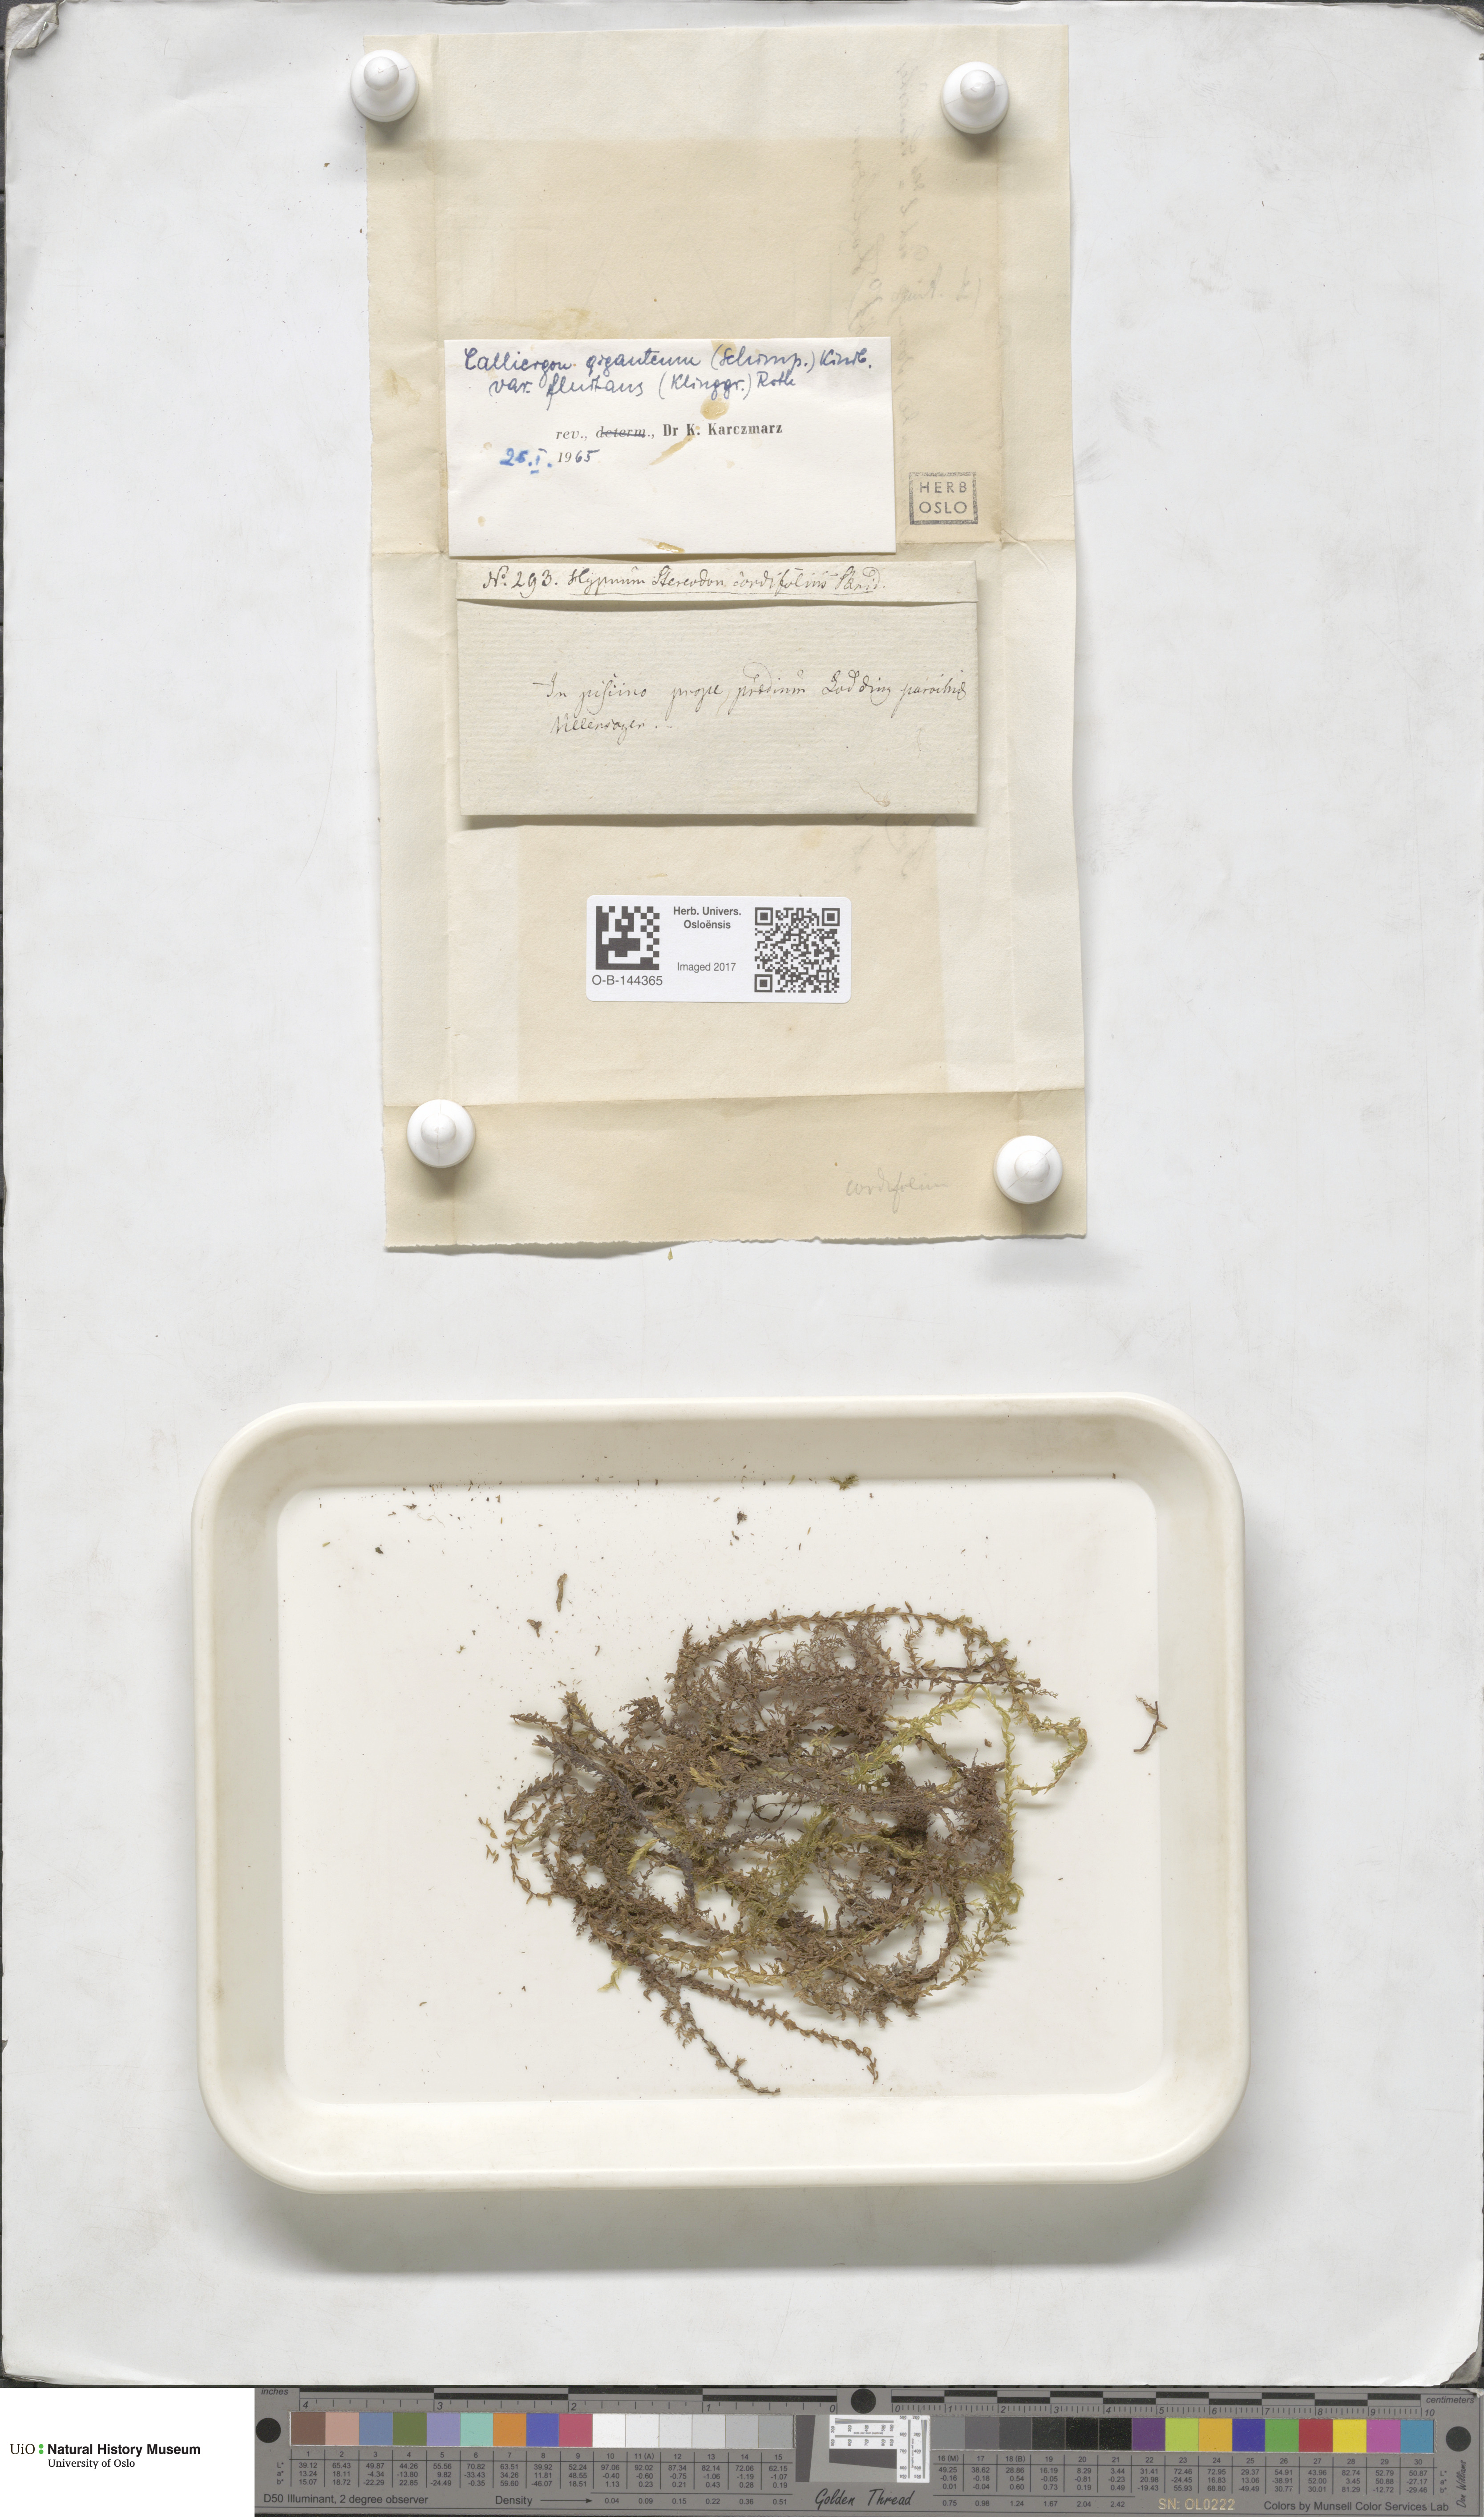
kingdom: Plantae
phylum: Bryophyta
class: Bryopsida
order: Hypnales
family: Calliergonaceae
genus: Calliergon
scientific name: Calliergon giganteum
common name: Giant spear moss
